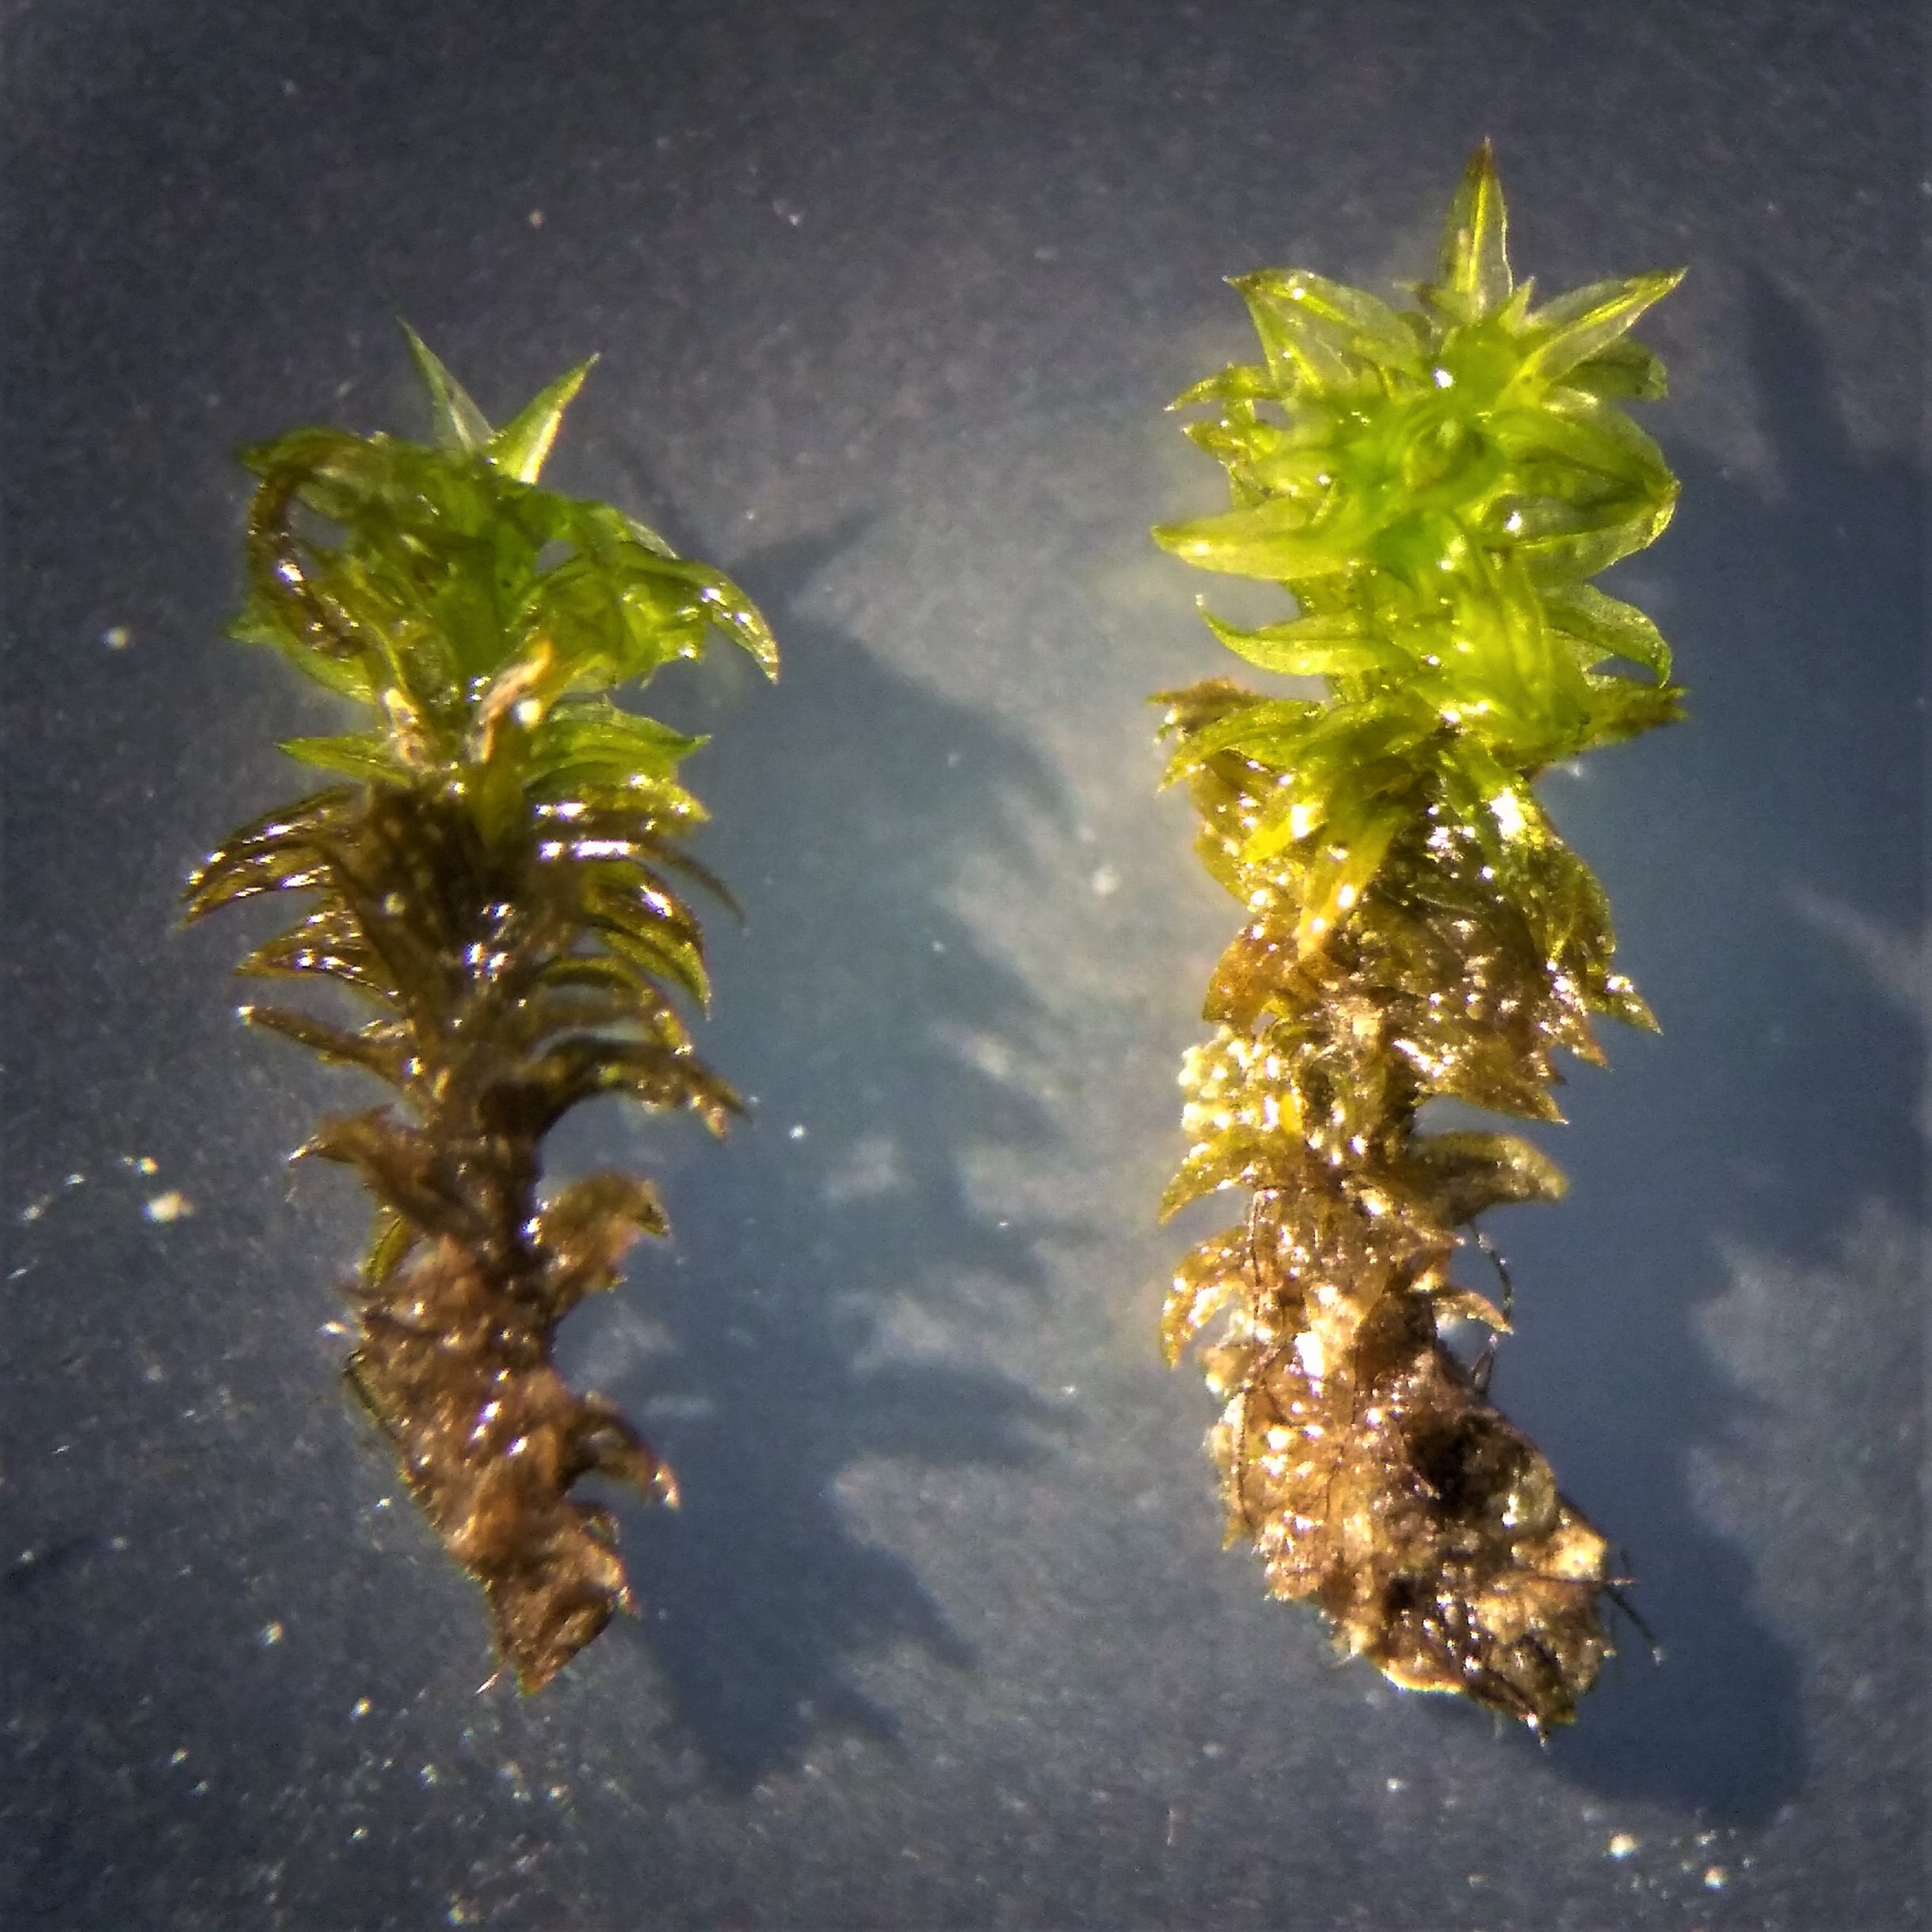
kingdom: Plantae
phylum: Bryophyta
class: Bryopsida
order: Orthotrichales
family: Orthotrichaceae
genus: Zygodon
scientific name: Zygodon viridissimus
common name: Grøn køllemos
